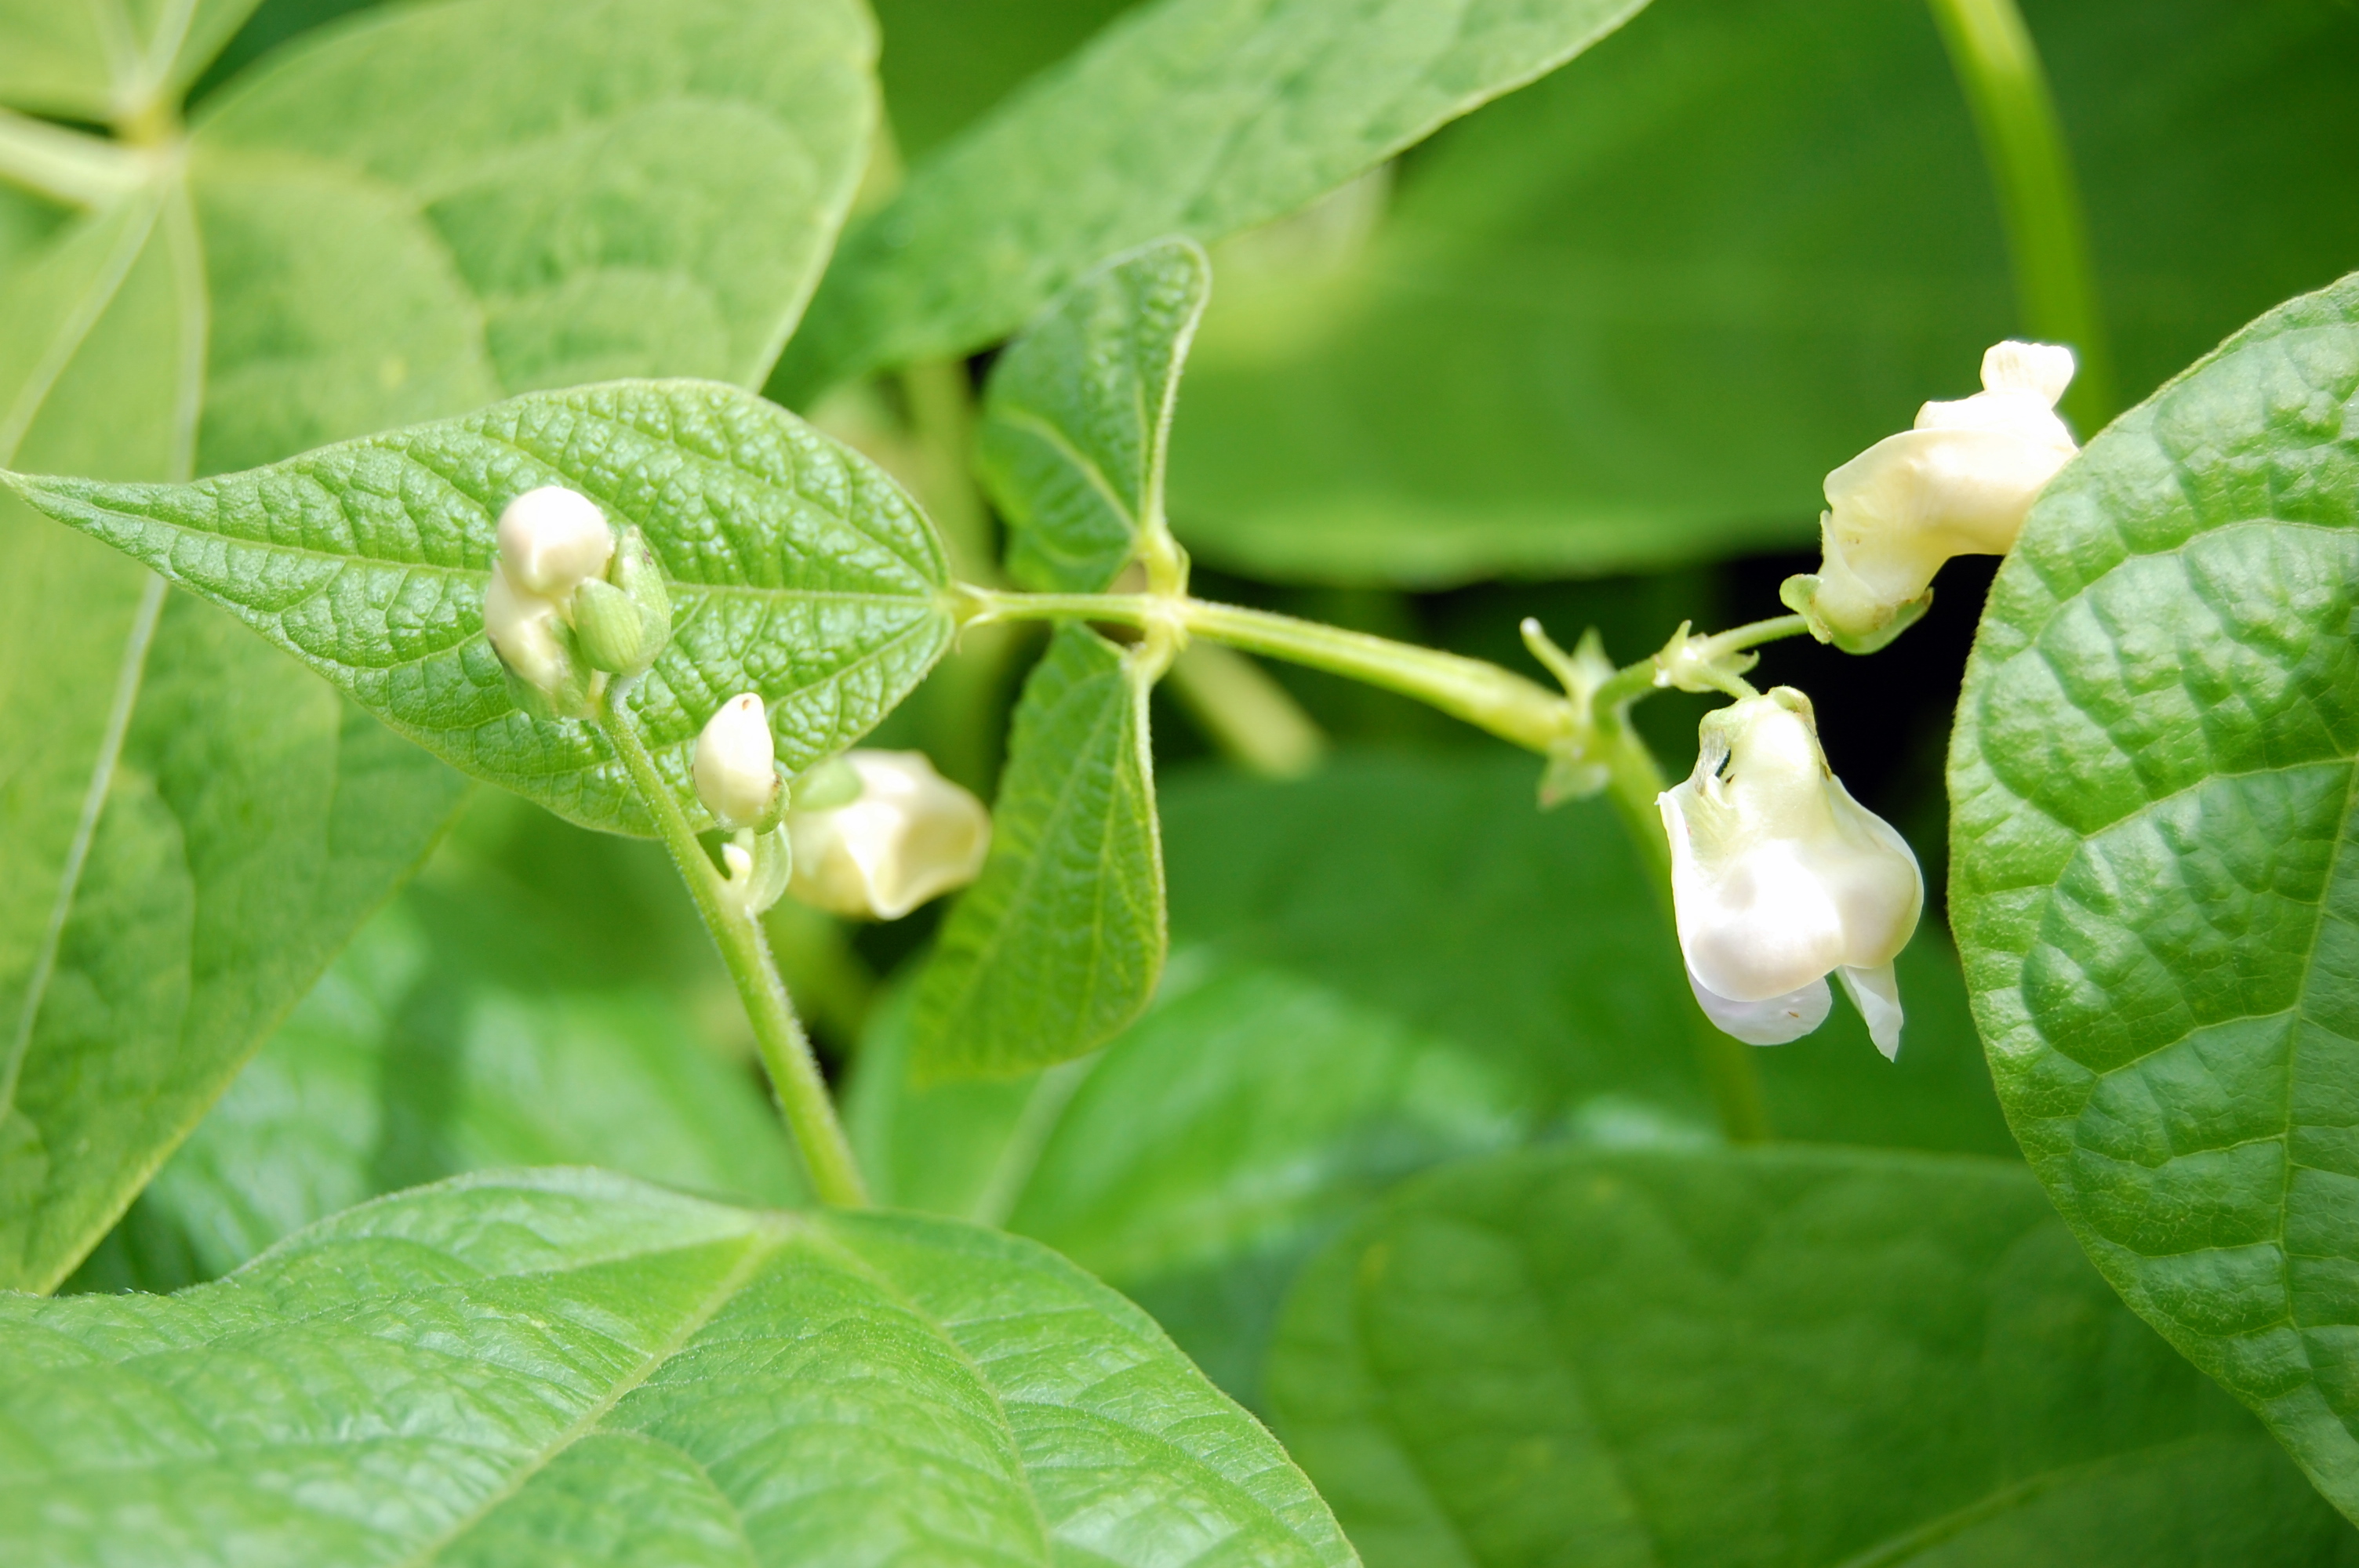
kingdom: Plantae
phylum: Tracheophyta
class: Magnoliopsida
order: Fabales
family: Fabaceae
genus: Phaseolus
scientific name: Phaseolus vulgaris
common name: Bean
